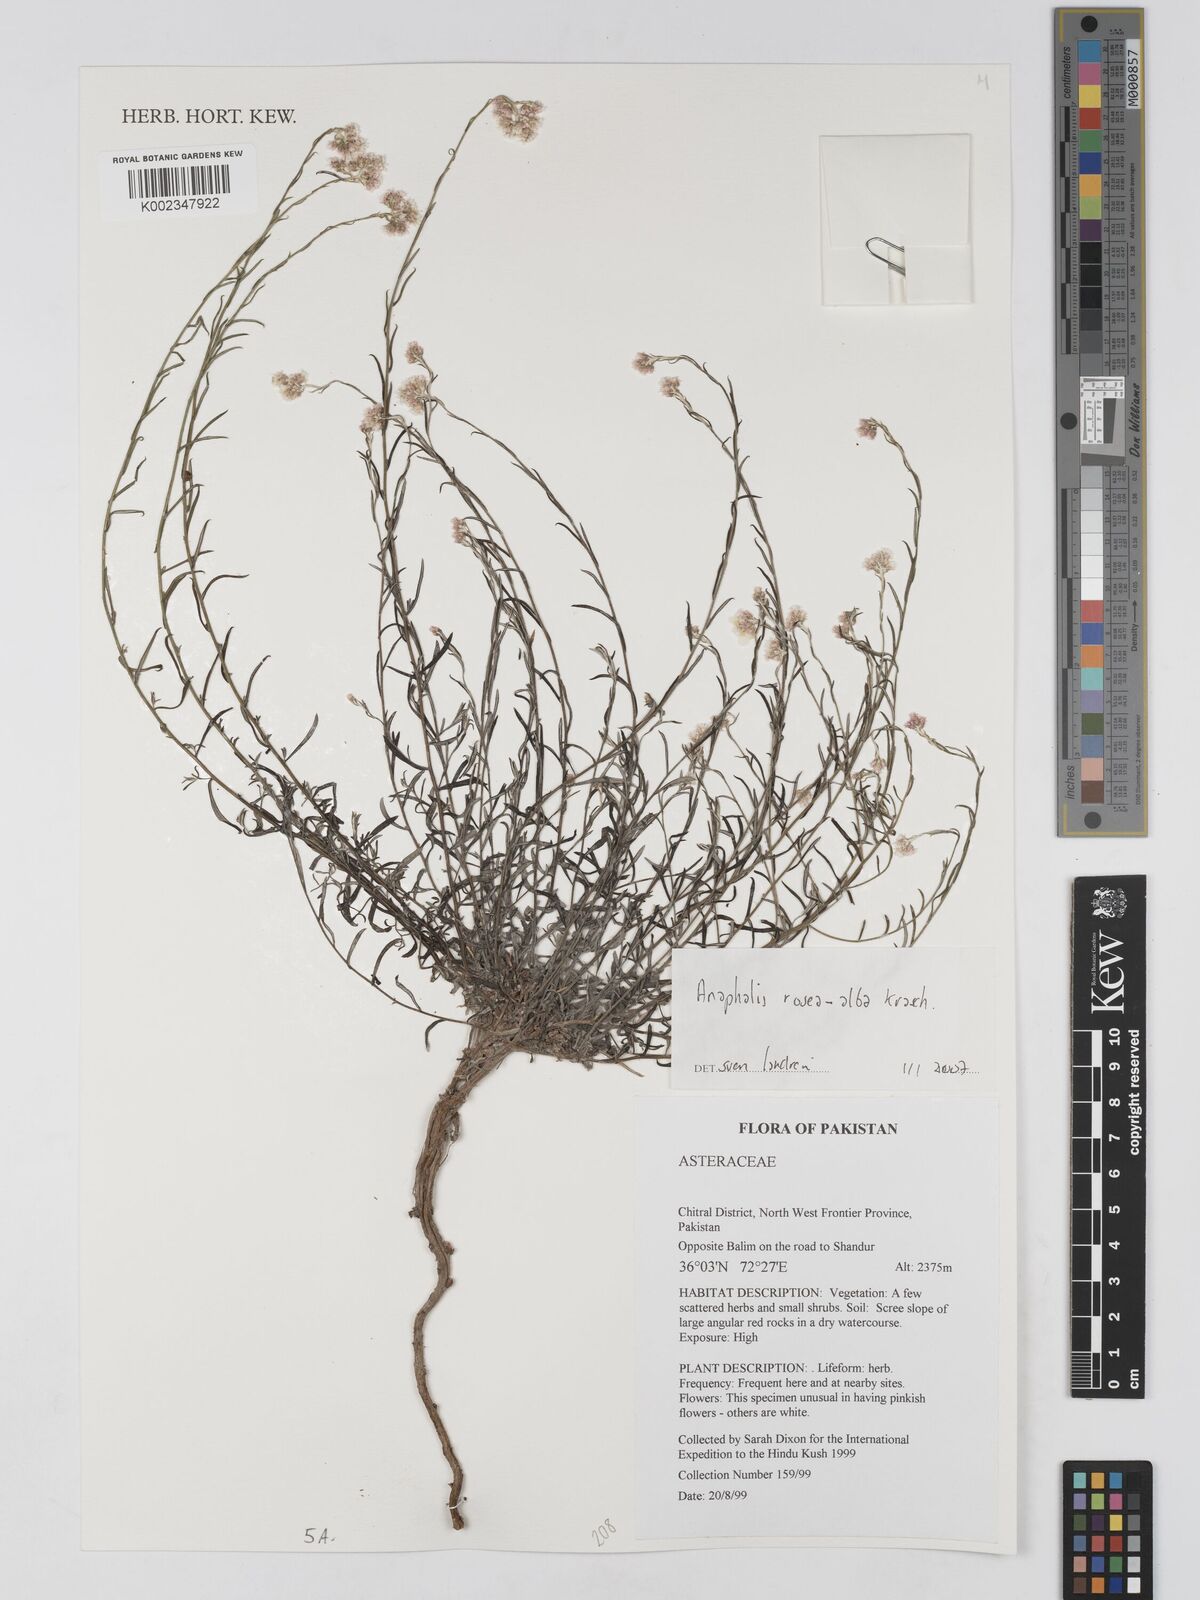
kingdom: Plantae
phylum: Tracheophyta
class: Magnoliopsida
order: Asterales
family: Asteraceae
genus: Anaphalis
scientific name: Anaphalis roseoalba
